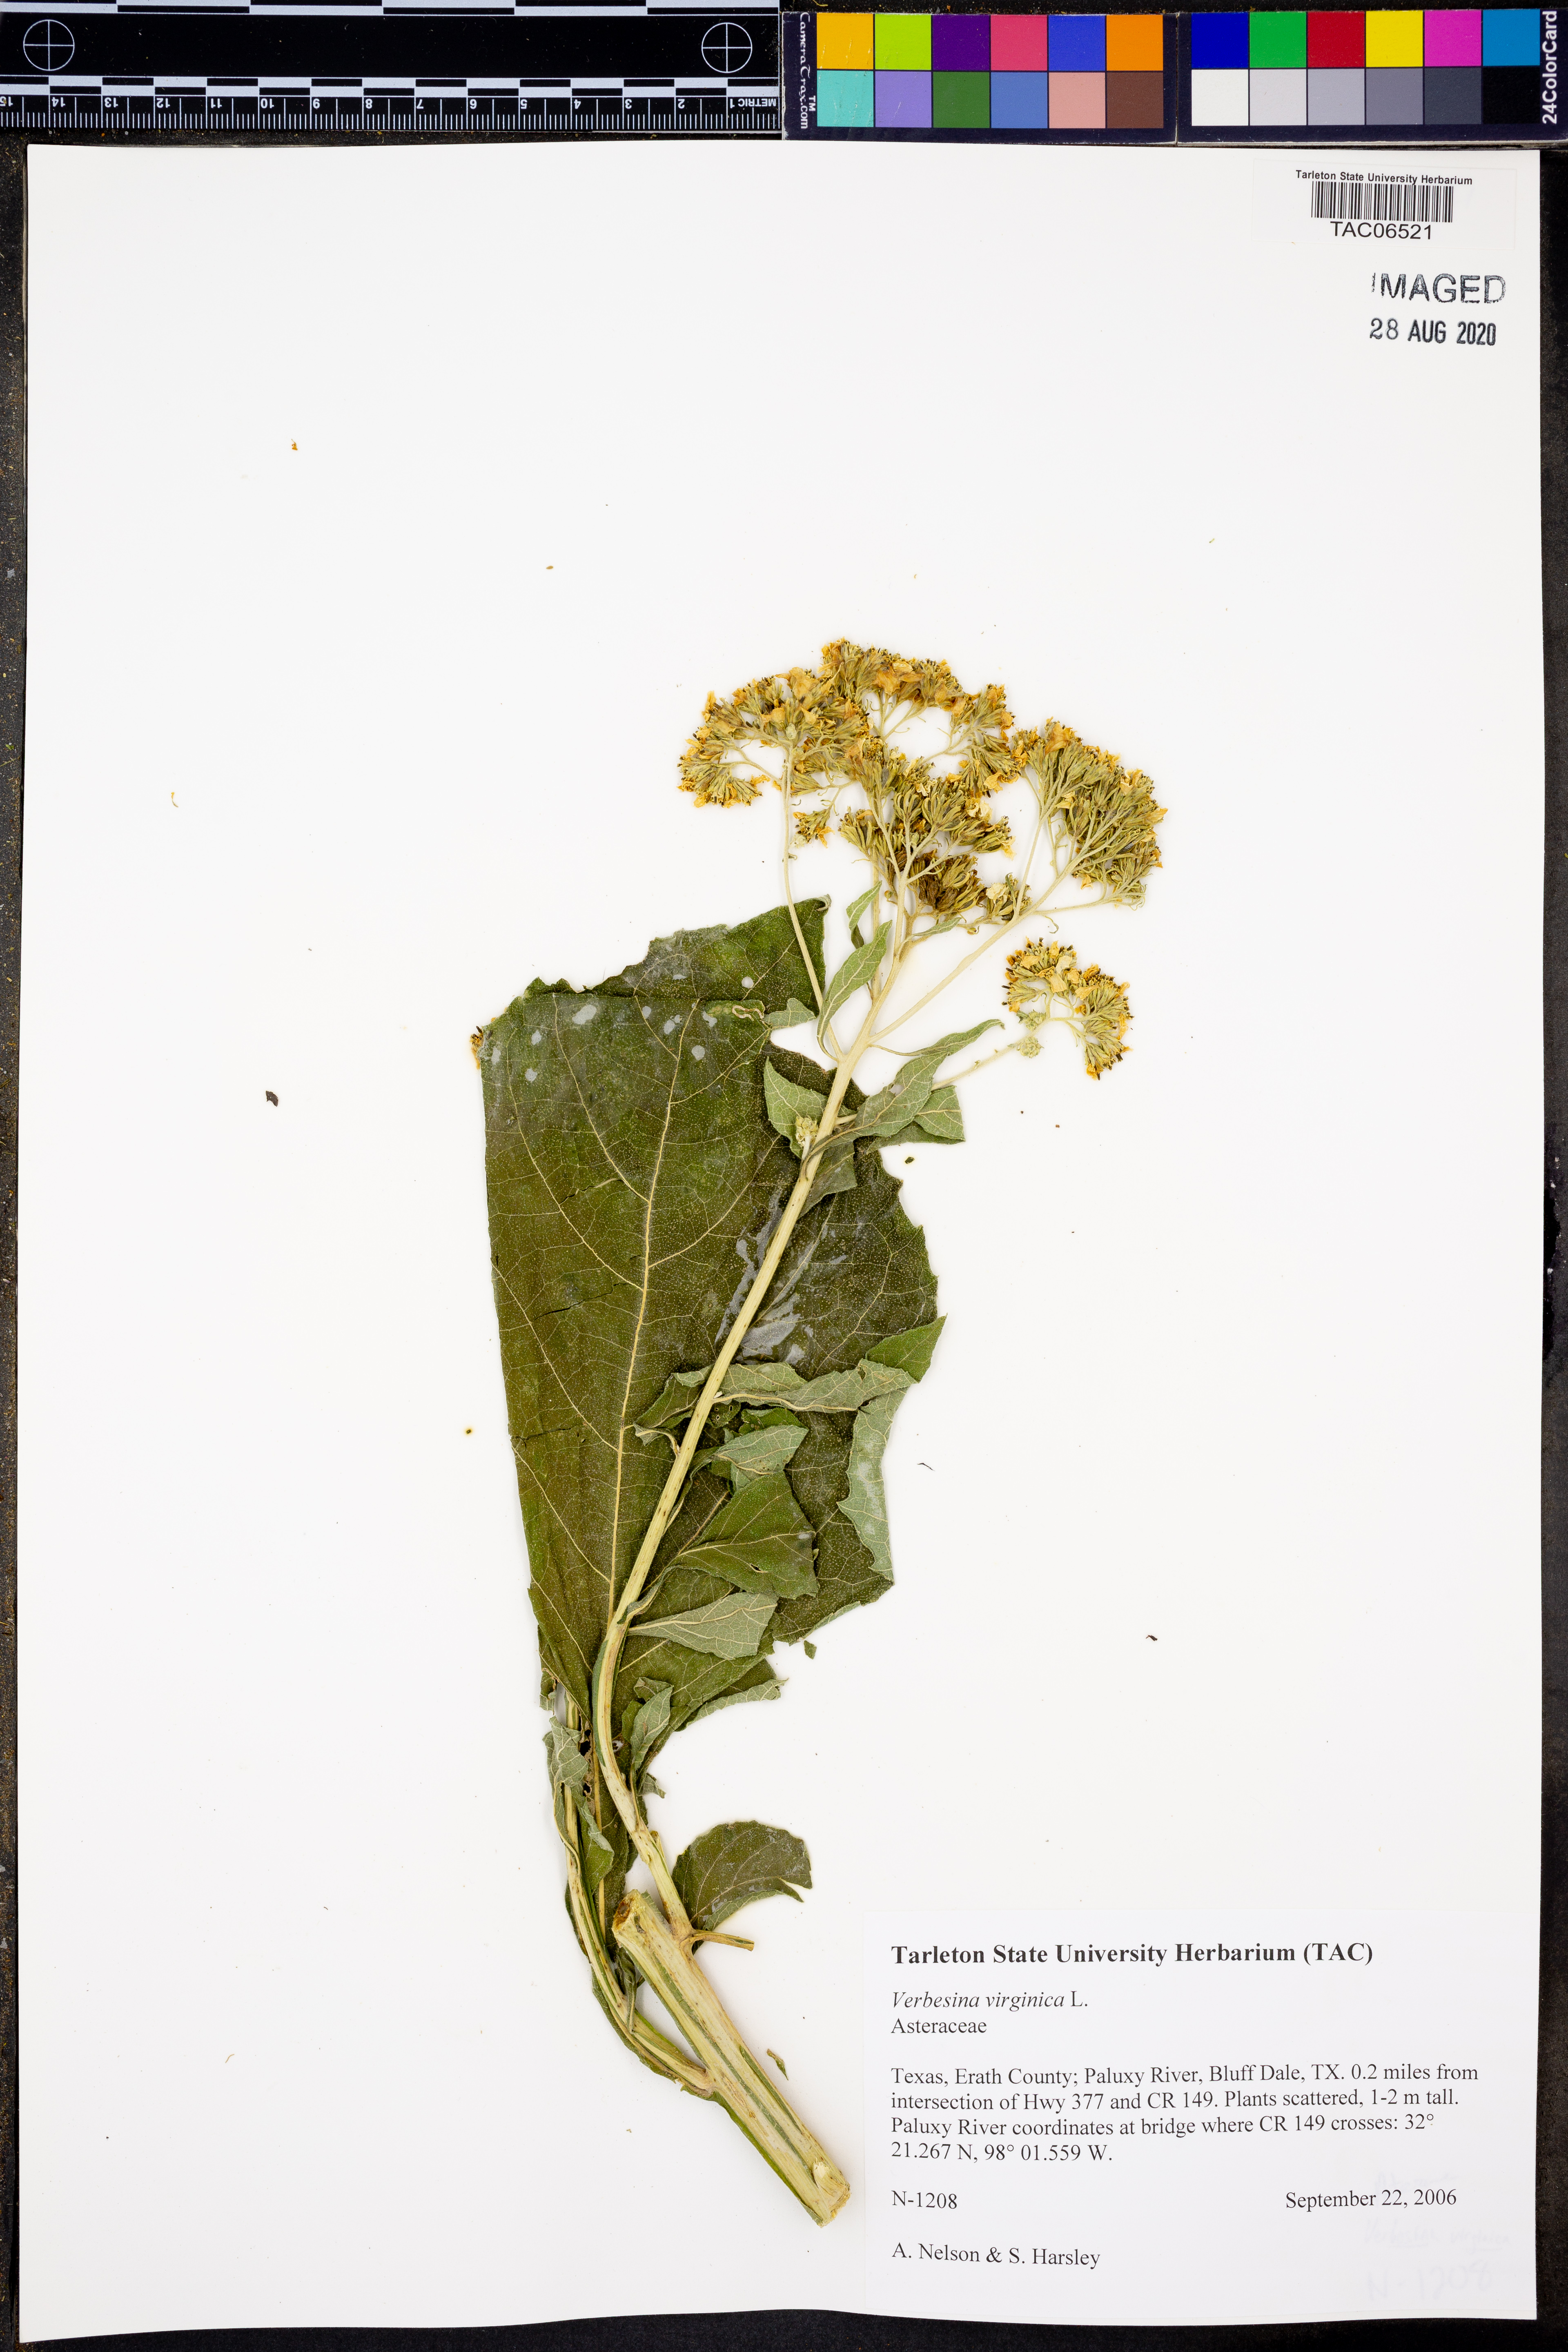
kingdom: Plantae
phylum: Tracheophyta
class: Magnoliopsida
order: Asterales
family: Asteraceae
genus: Verbesina
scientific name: Verbesina virginica
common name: Frostweed
